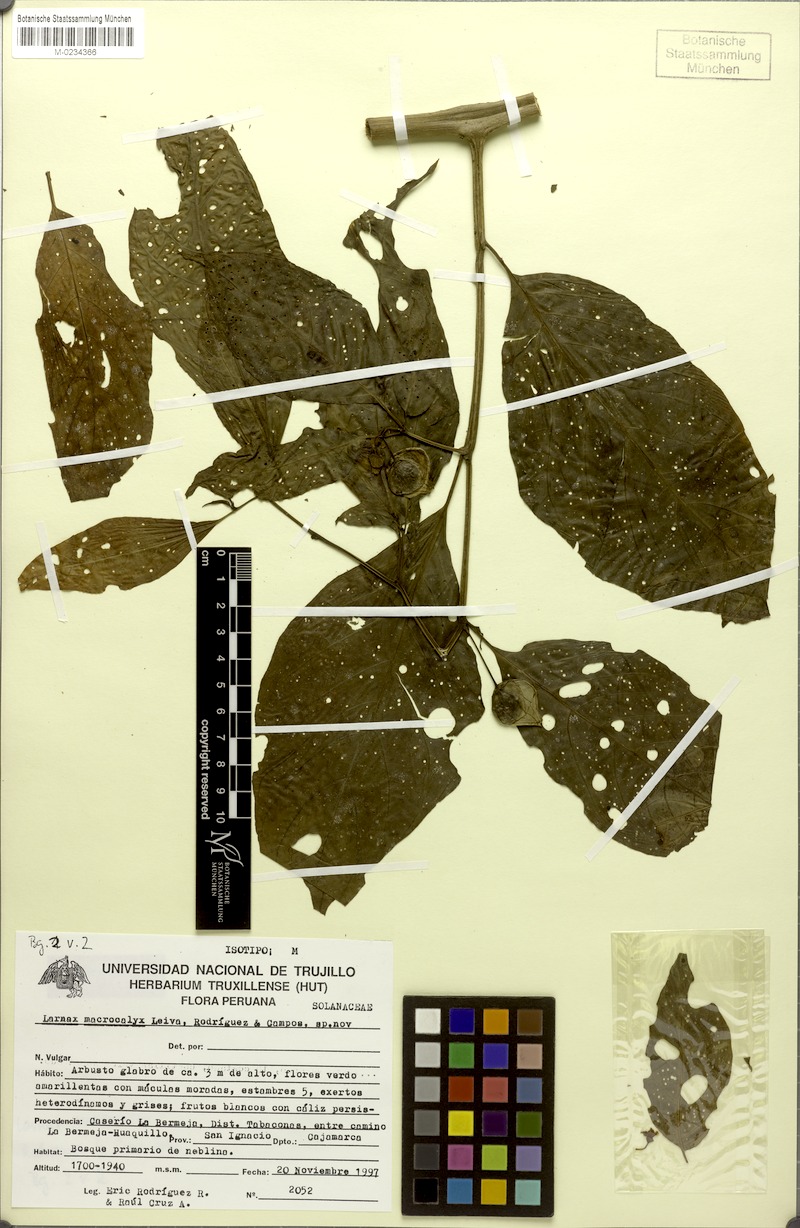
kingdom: Plantae
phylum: Tracheophyta
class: Magnoliopsida
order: Solanales
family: Solanaceae
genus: Deprea
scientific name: Deprea macrocalyx
